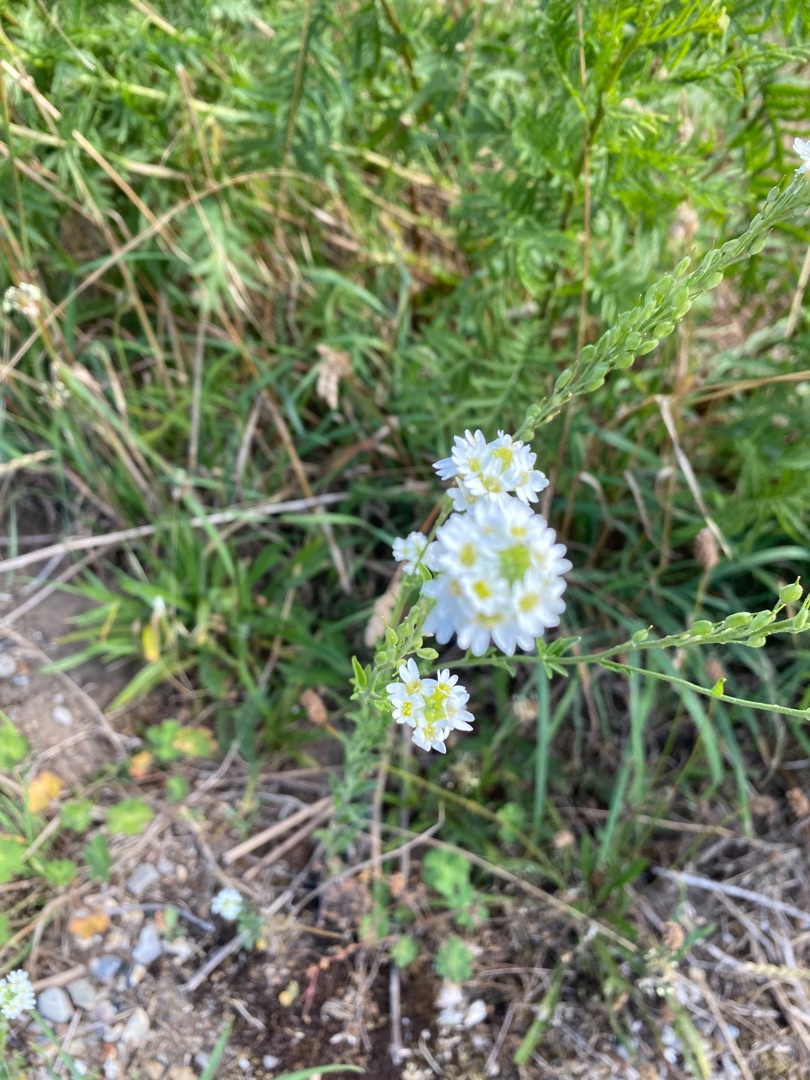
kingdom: Plantae
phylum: Tracheophyta
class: Magnoliopsida
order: Brassicales
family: Brassicaceae
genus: Berteroa
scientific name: Berteroa incana
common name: Kløvplade
